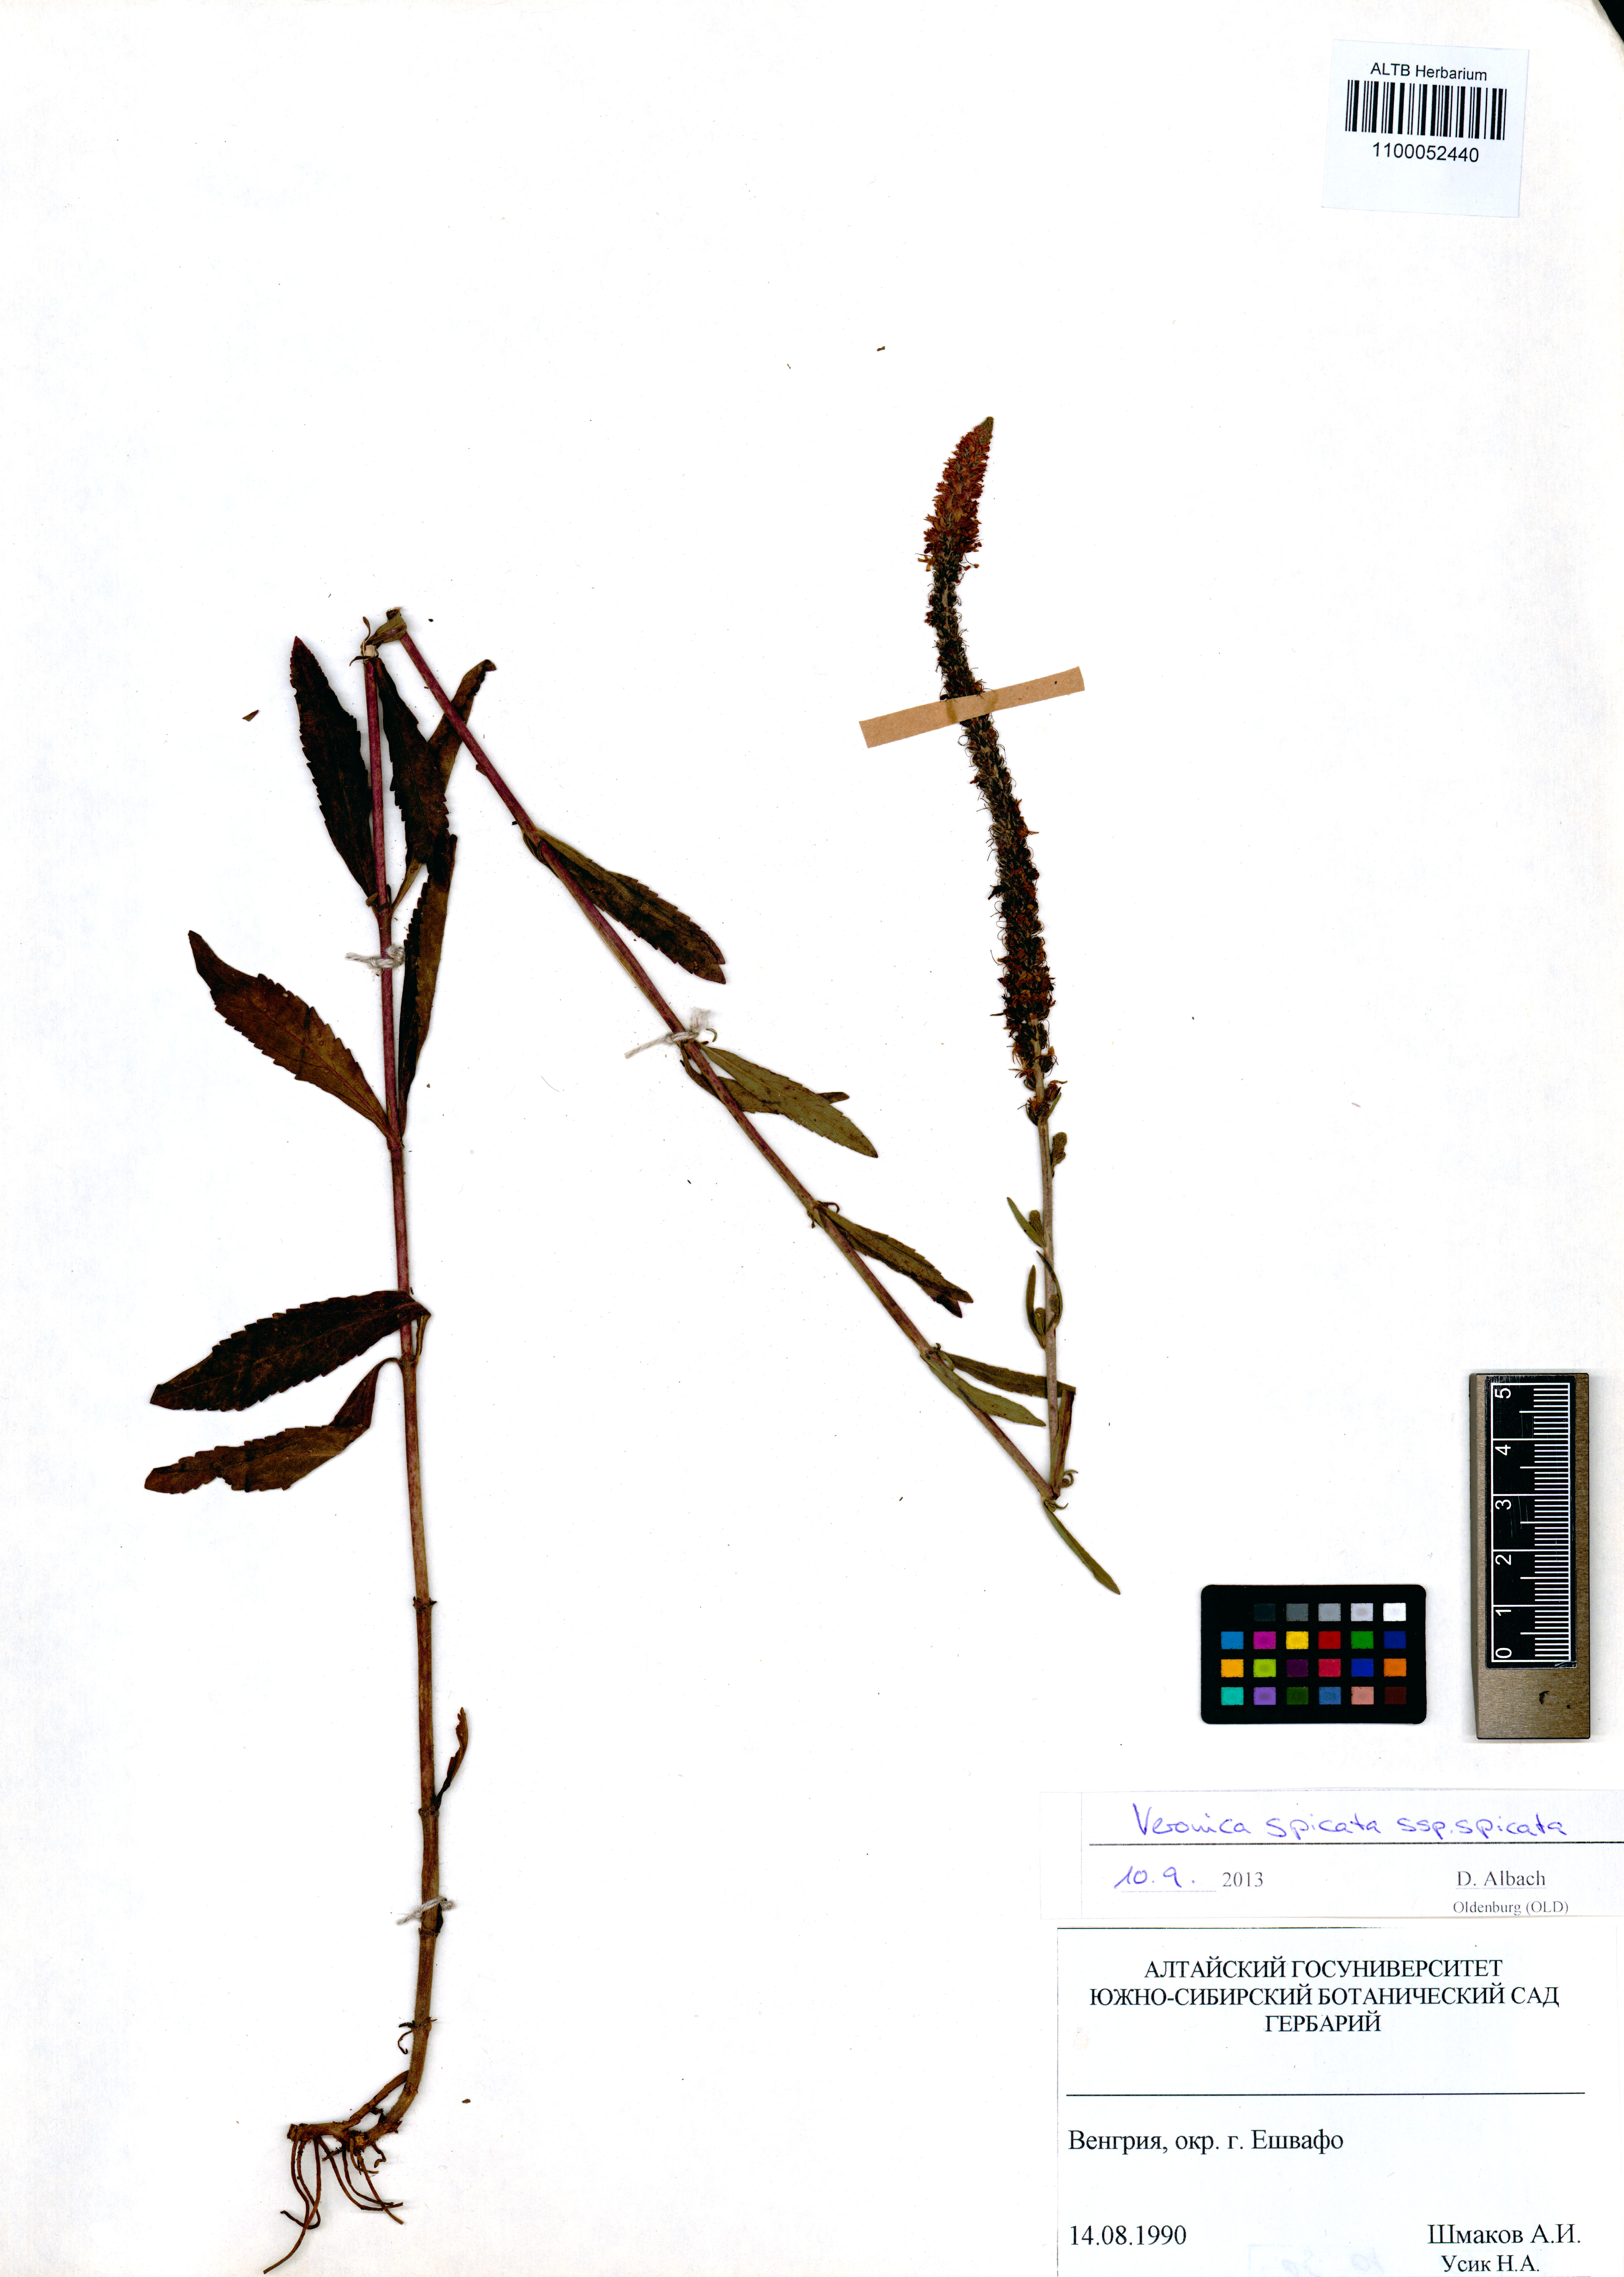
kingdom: Plantae
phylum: Tracheophyta
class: Magnoliopsida
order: Lamiales
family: Plantaginaceae
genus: Veronica
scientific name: Veronica spicata
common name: Spiked speedwell
